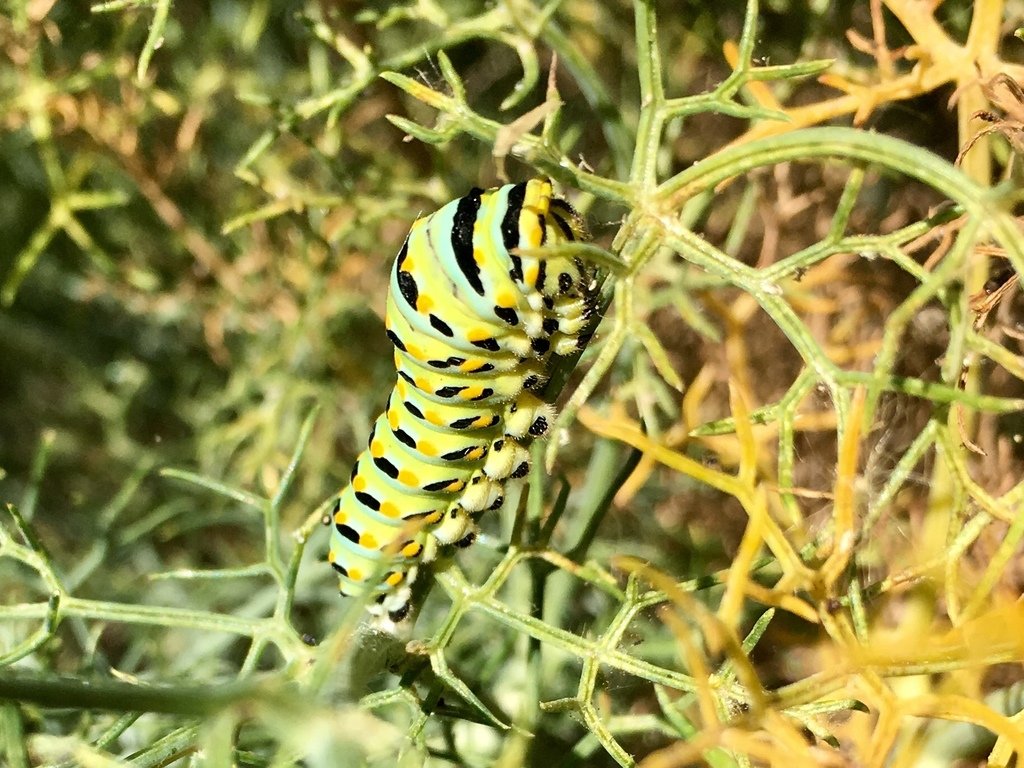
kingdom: Animalia
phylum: Arthropoda
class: Insecta
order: Lepidoptera
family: Papilionidae
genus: Papilio
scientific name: Papilio zelicaon
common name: Anise Swallowtail
